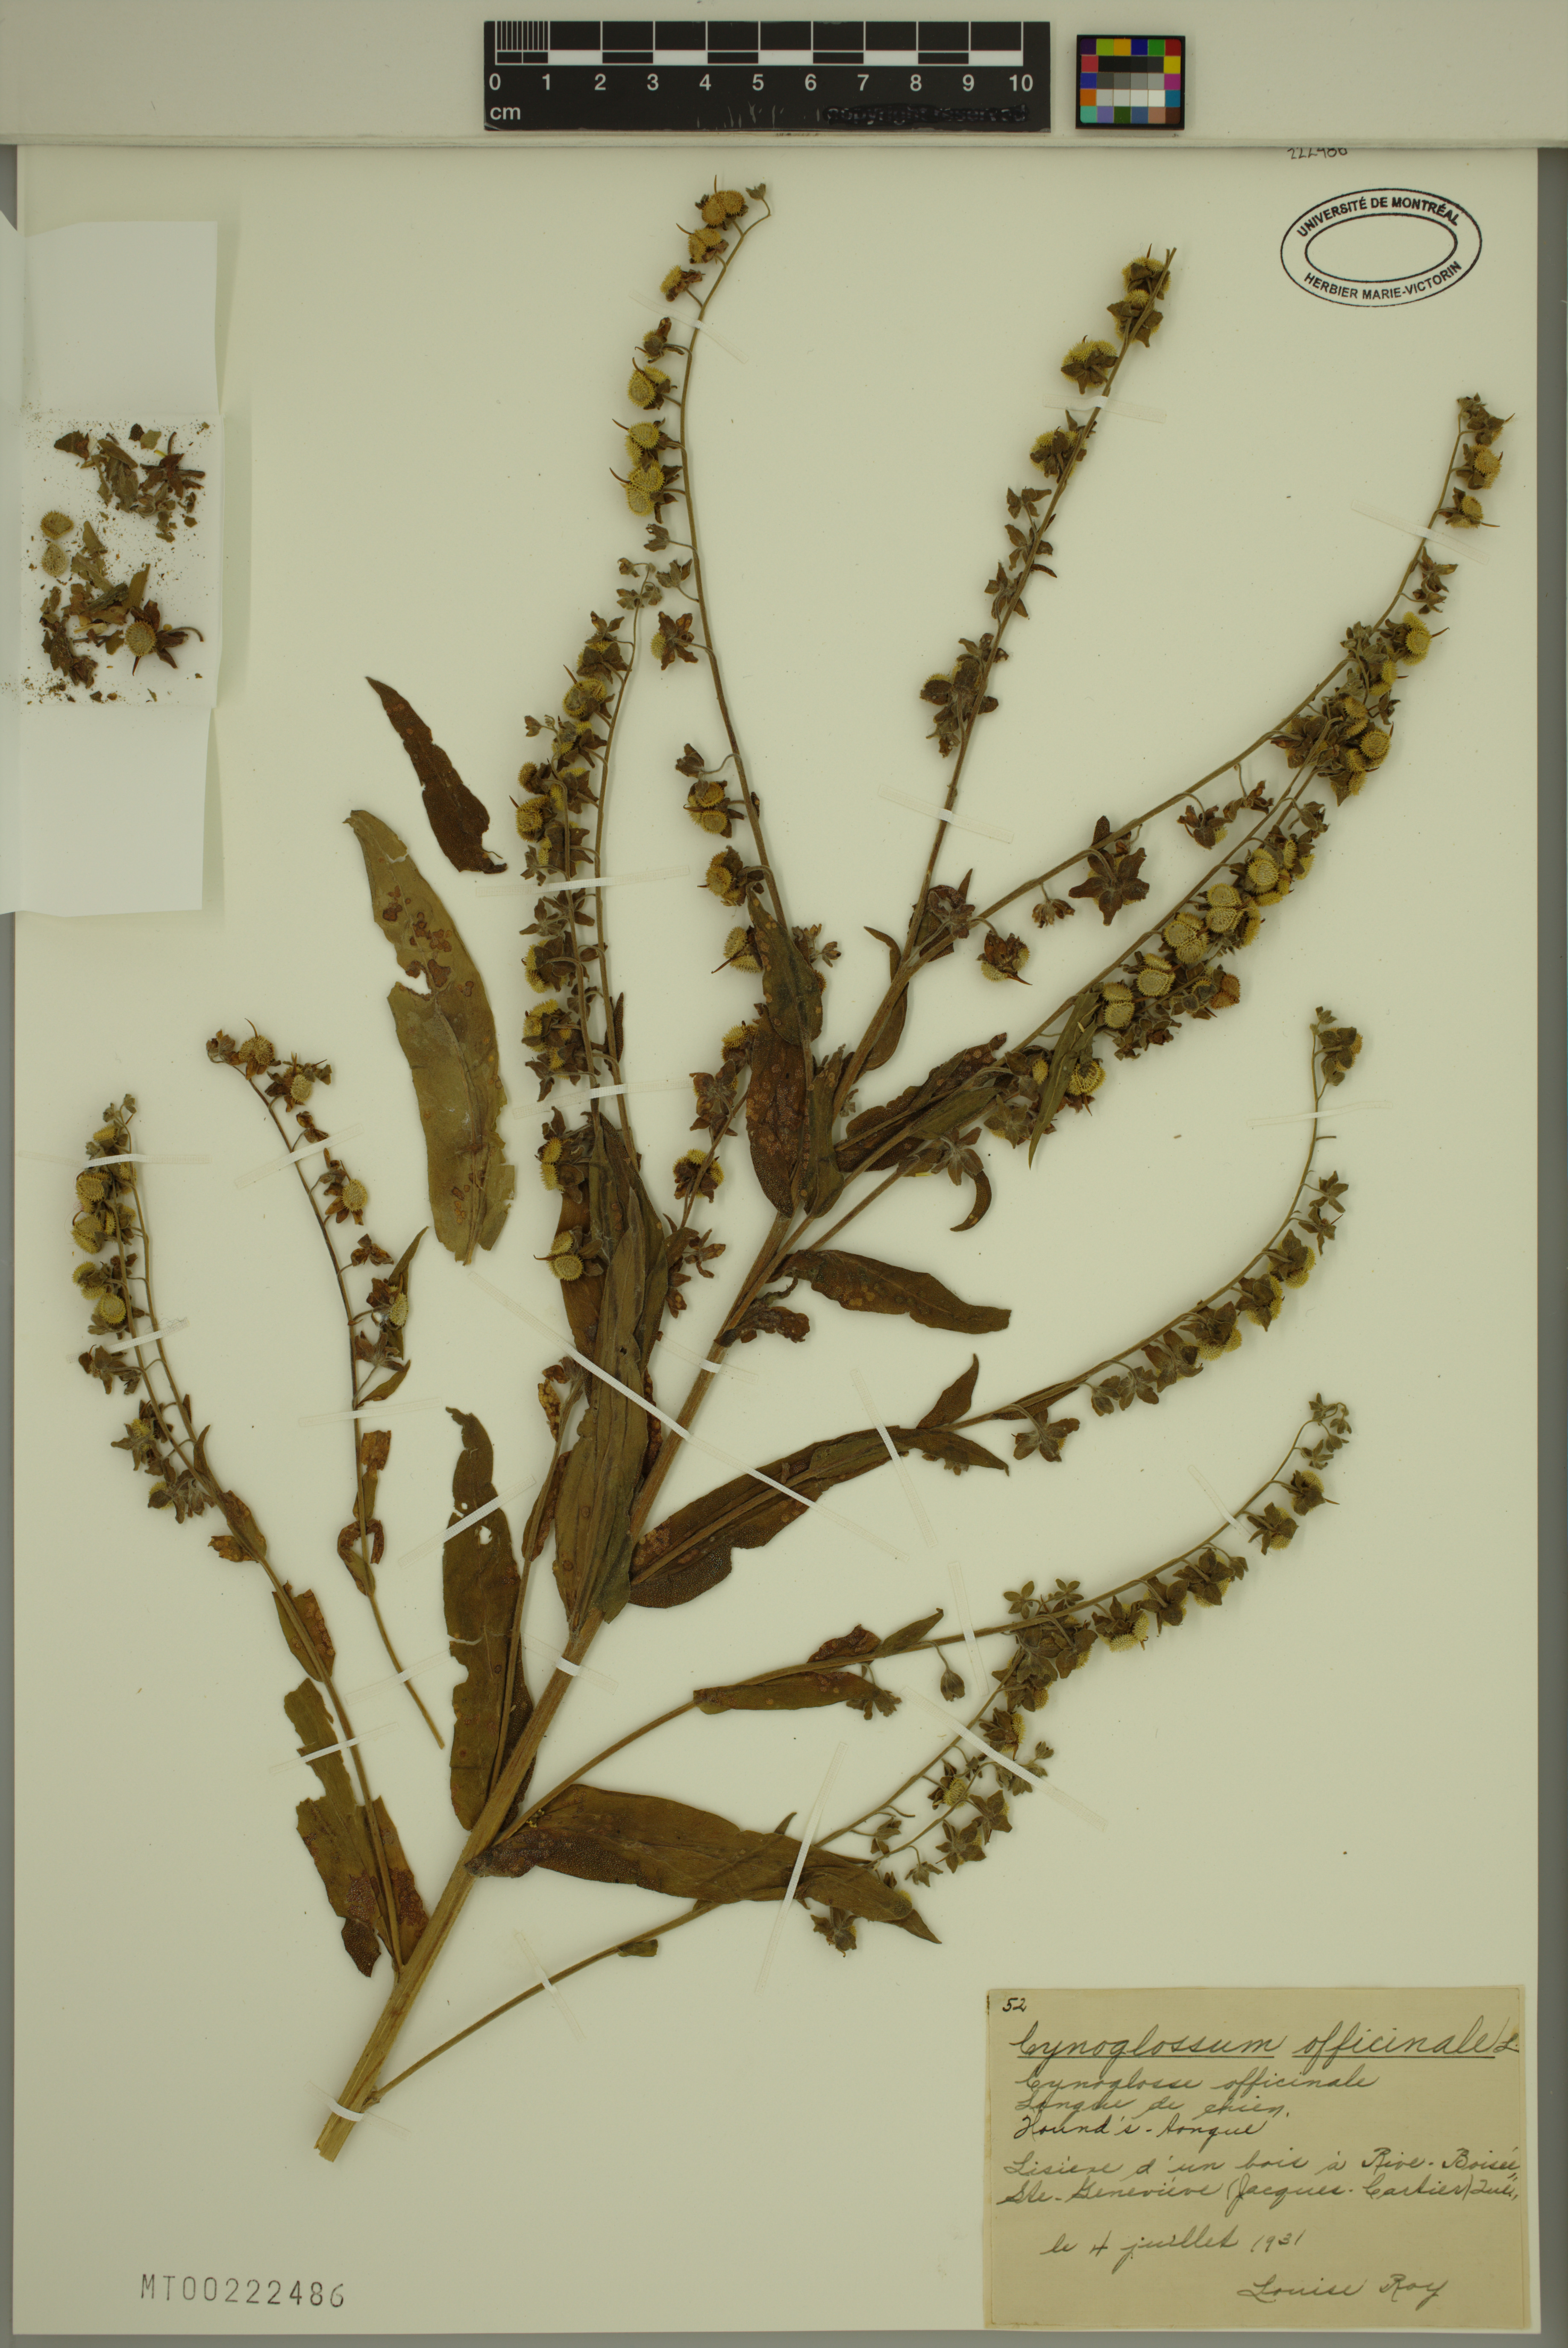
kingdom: Plantae
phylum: Tracheophyta
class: Magnoliopsida
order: Boraginales
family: Boraginaceae
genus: Cynoglossum
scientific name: Cynoglossum officinale
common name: Hound's-tongue
